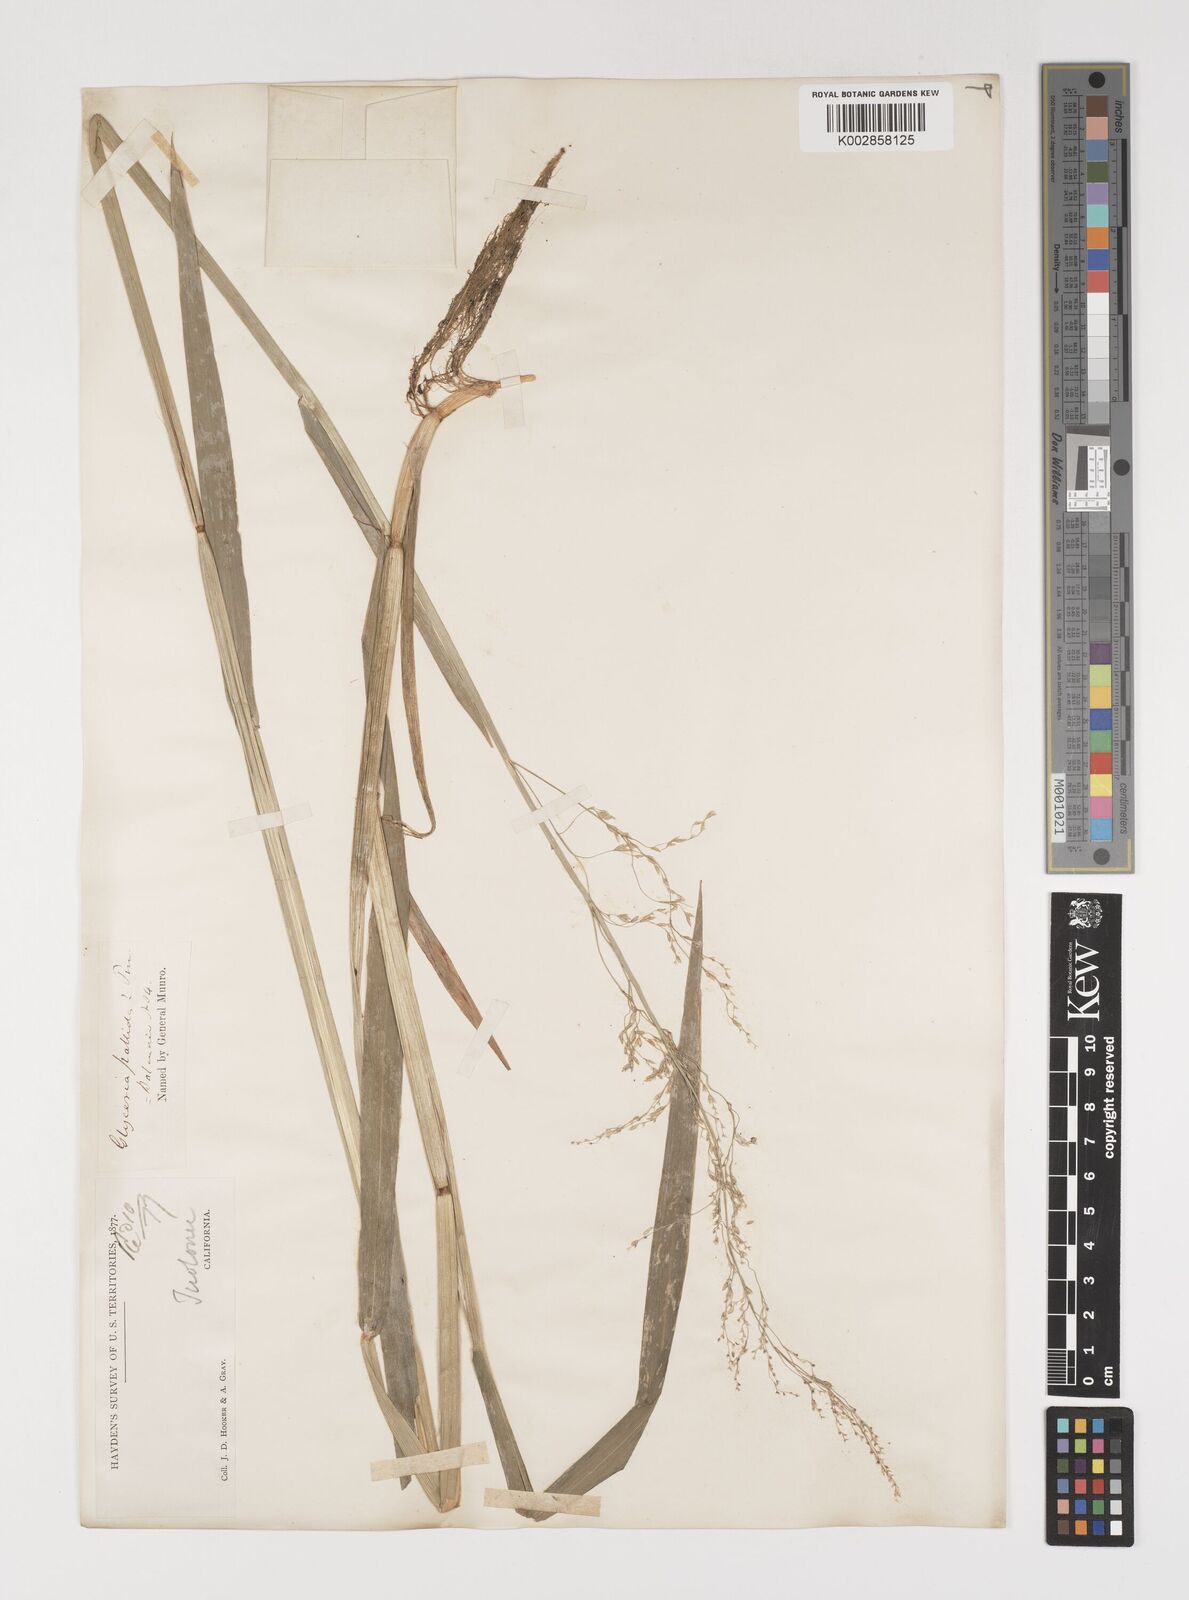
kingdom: Plantae
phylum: Tracheophyta
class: Liliopsida
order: Poales
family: Poaceae
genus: Torreyochloa
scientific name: Torreyochloa pallida
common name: Pale false mannagrass
